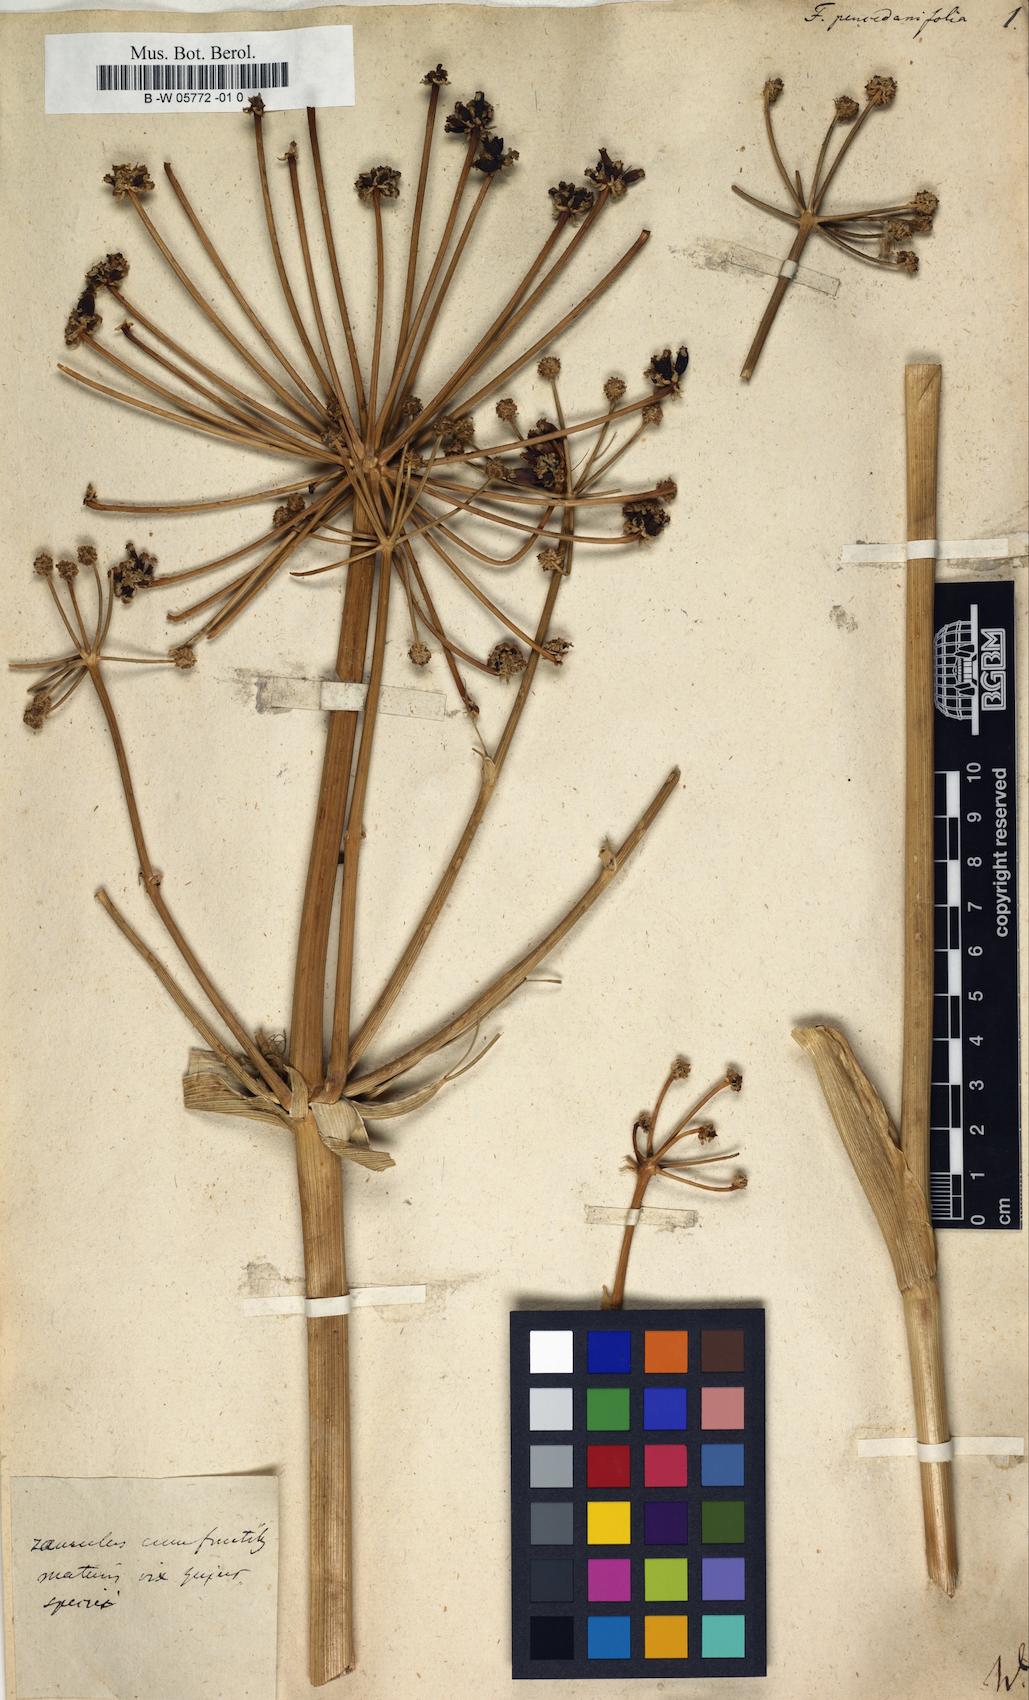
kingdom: Plantae
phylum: Tracheophyta
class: Magnoliopsida
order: Apiales
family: Apiaceae
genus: Ferula
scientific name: Ferula
